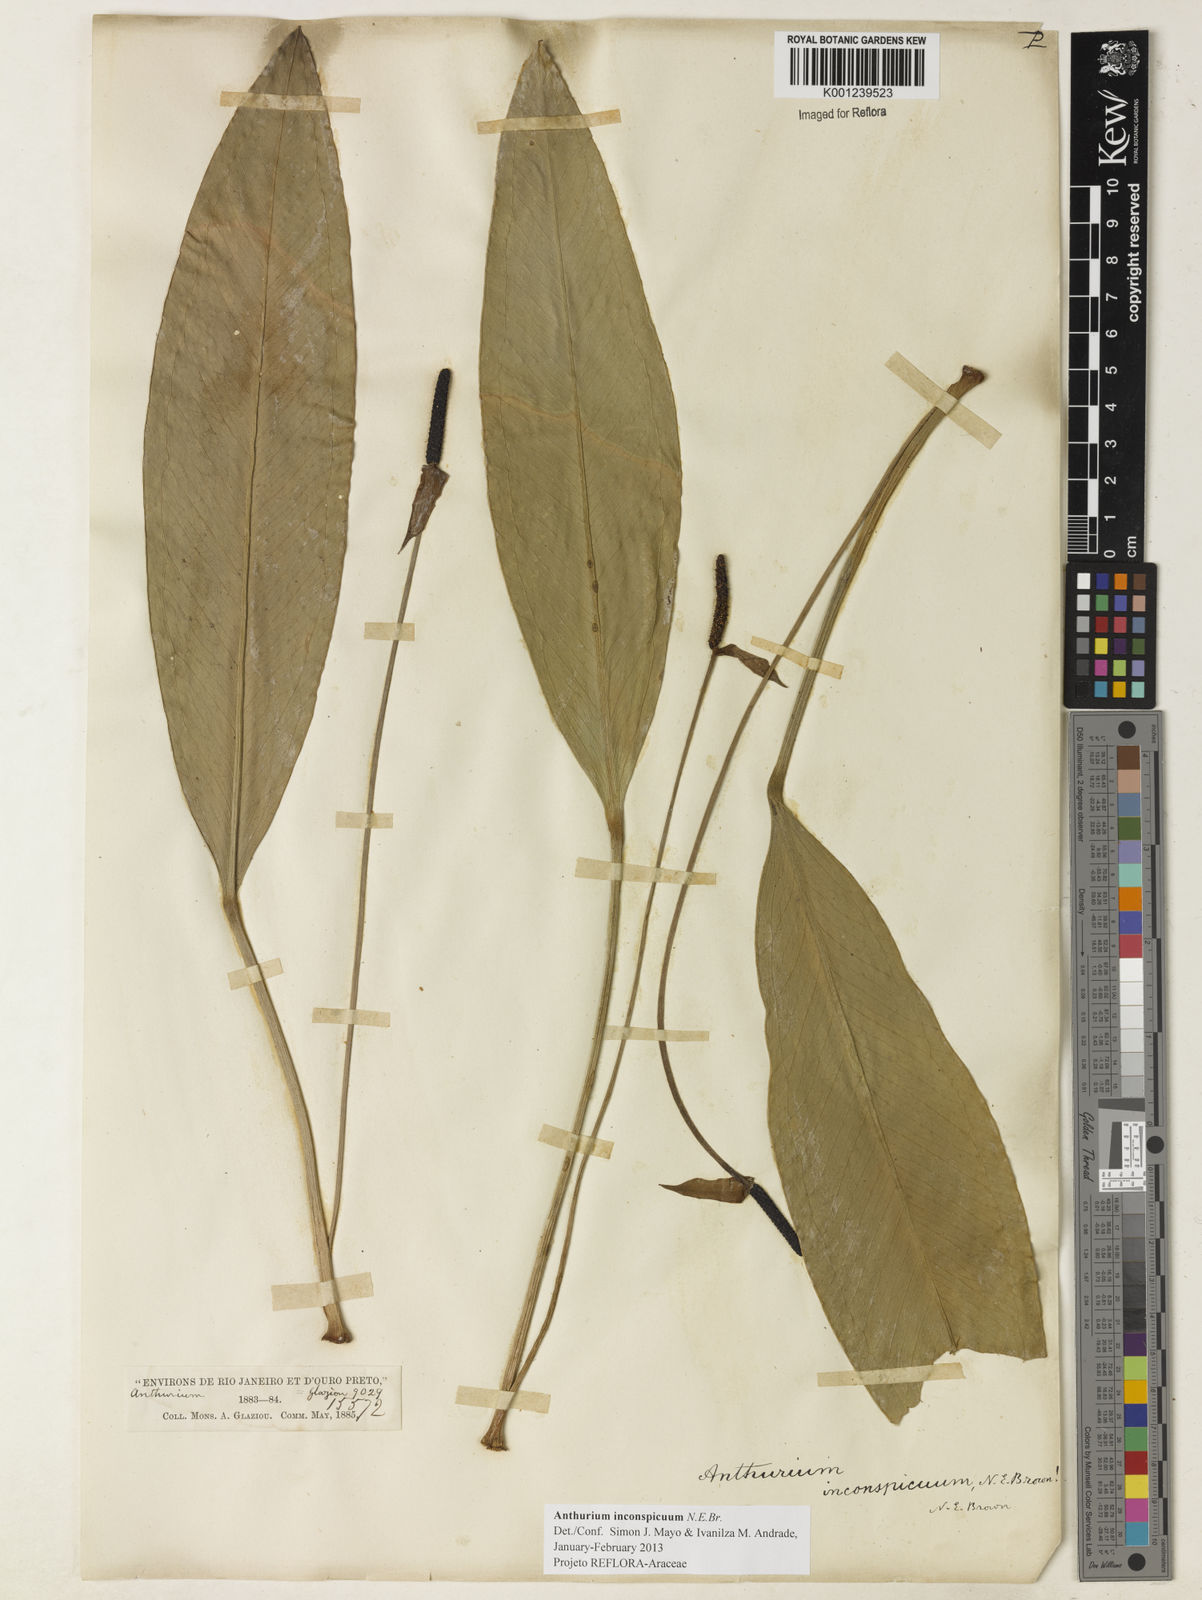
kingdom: Plantae
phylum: Tracheophyta
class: Liliopsida
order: Alismatales
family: Araceae
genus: Anthurium
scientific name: Anthurium inconspicuum
